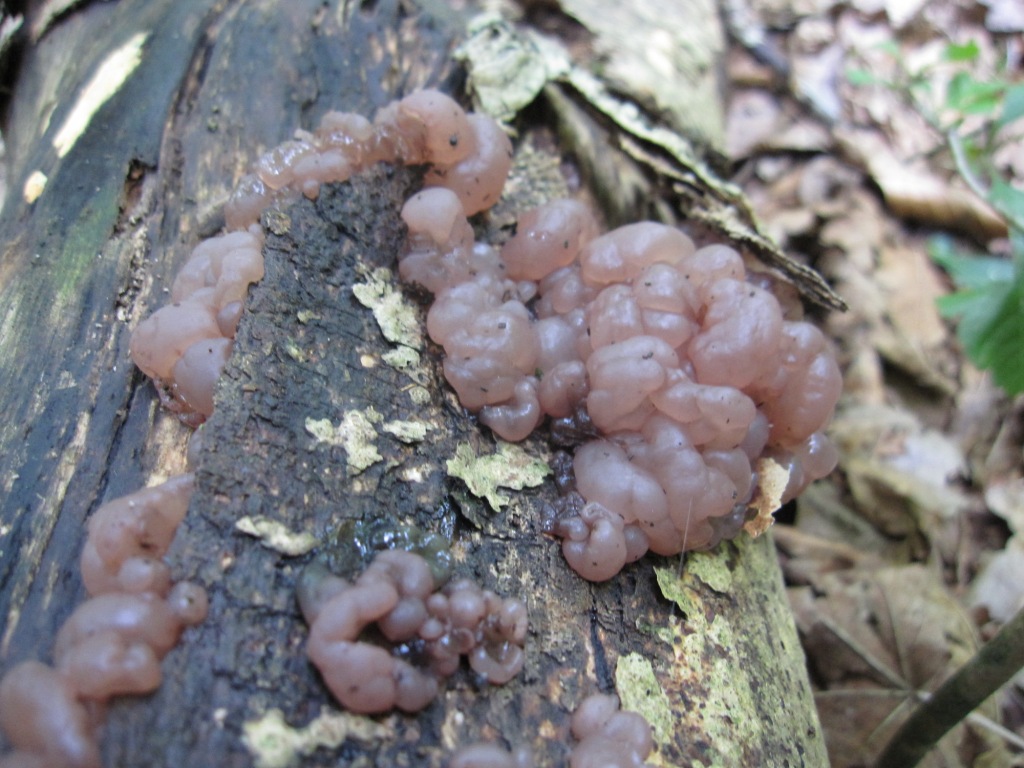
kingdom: Fungi
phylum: Ascomycota
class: Leotiomycetes
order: Helotiales
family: Gelatinodiscaceae
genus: Ascotremella
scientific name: Ascotremella faginea
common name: hjerne-bævreskive
